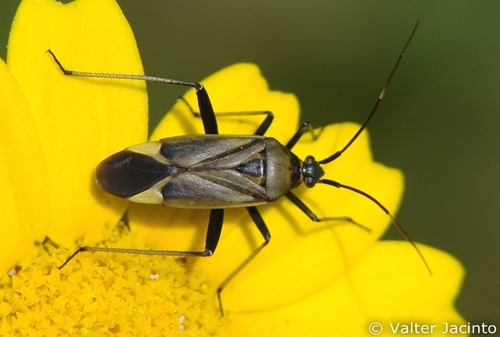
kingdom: Animalia
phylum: Arthropoda
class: Insecta
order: Hemiptera
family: Miridae
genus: Calocoris
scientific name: Calocoris nemoralis
